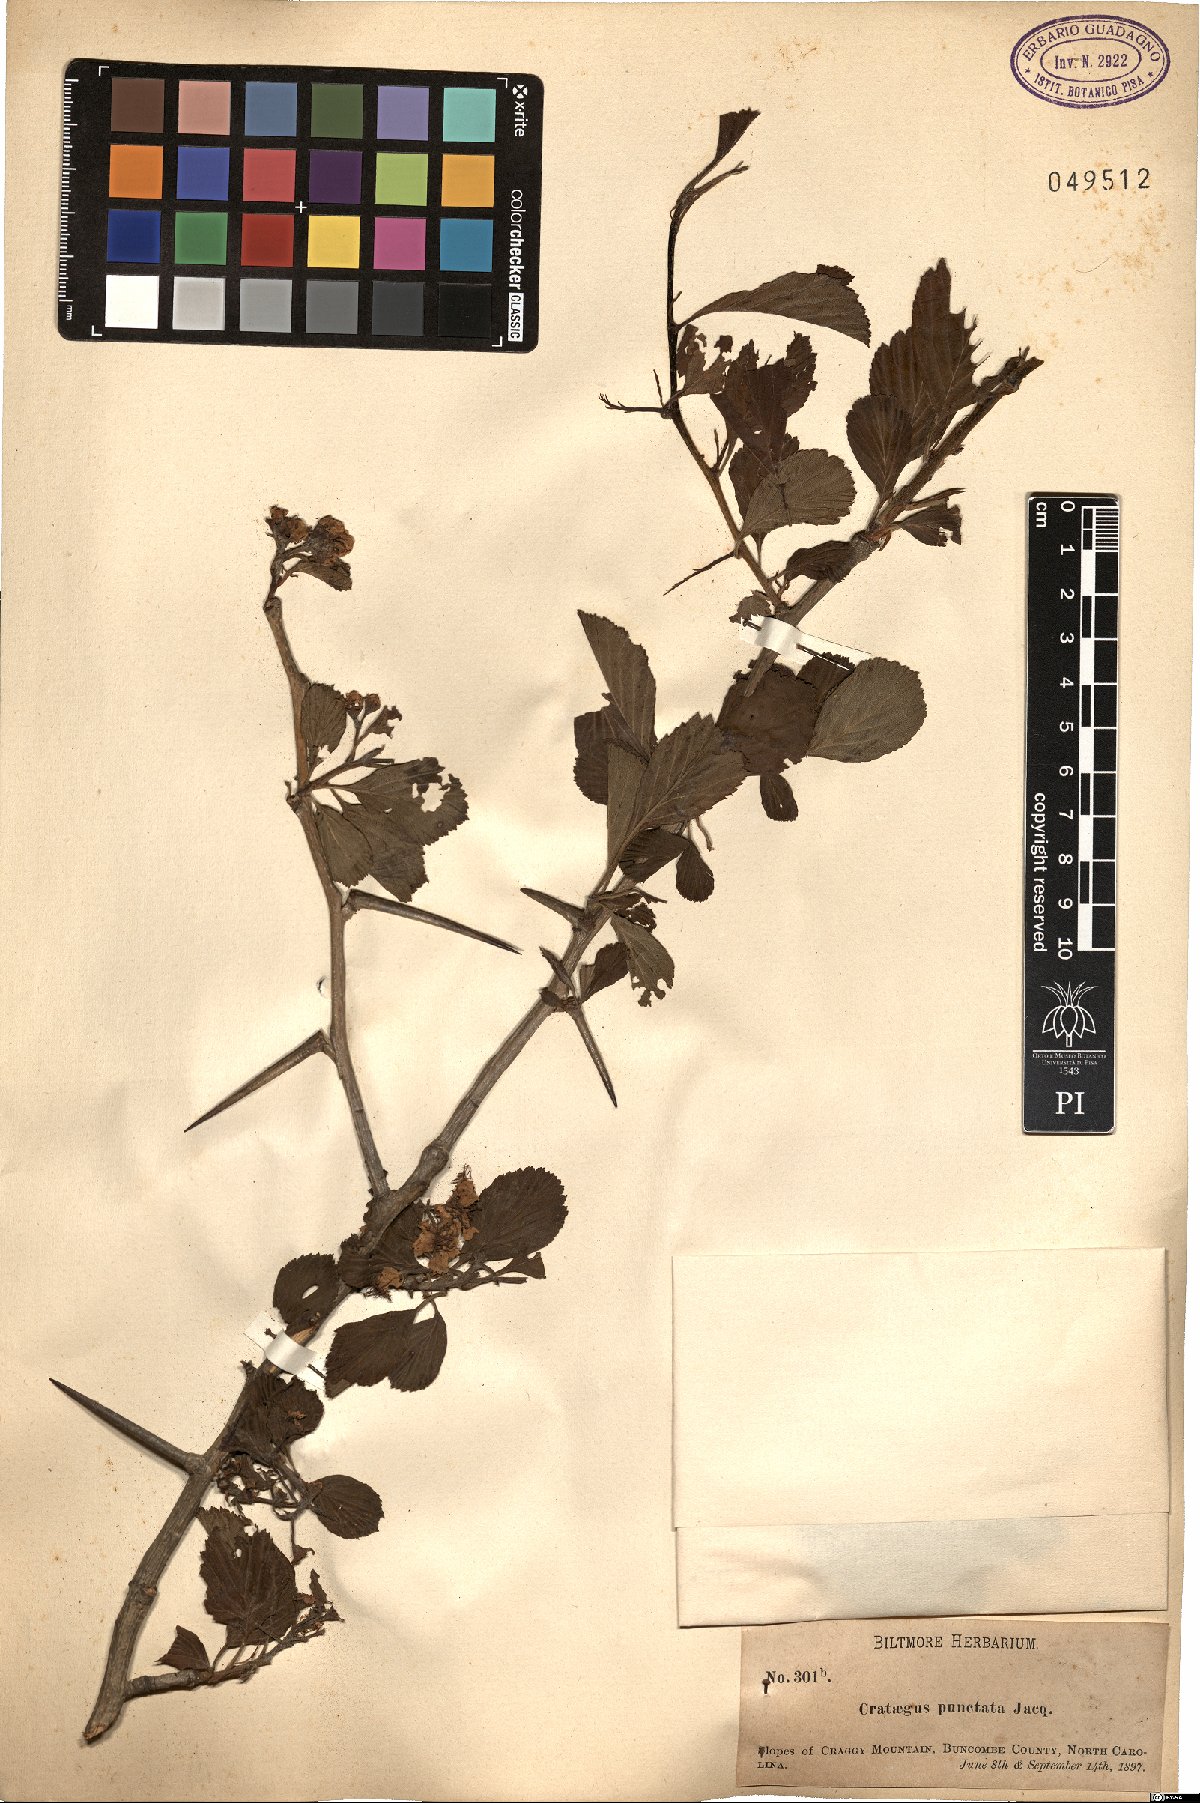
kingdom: Plantae
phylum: Tracheophyta
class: Magnoliopsida
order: Rosales
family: Rosaceae
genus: Crataegus
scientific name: Crataegus punctata
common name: Dotted hawthorn
